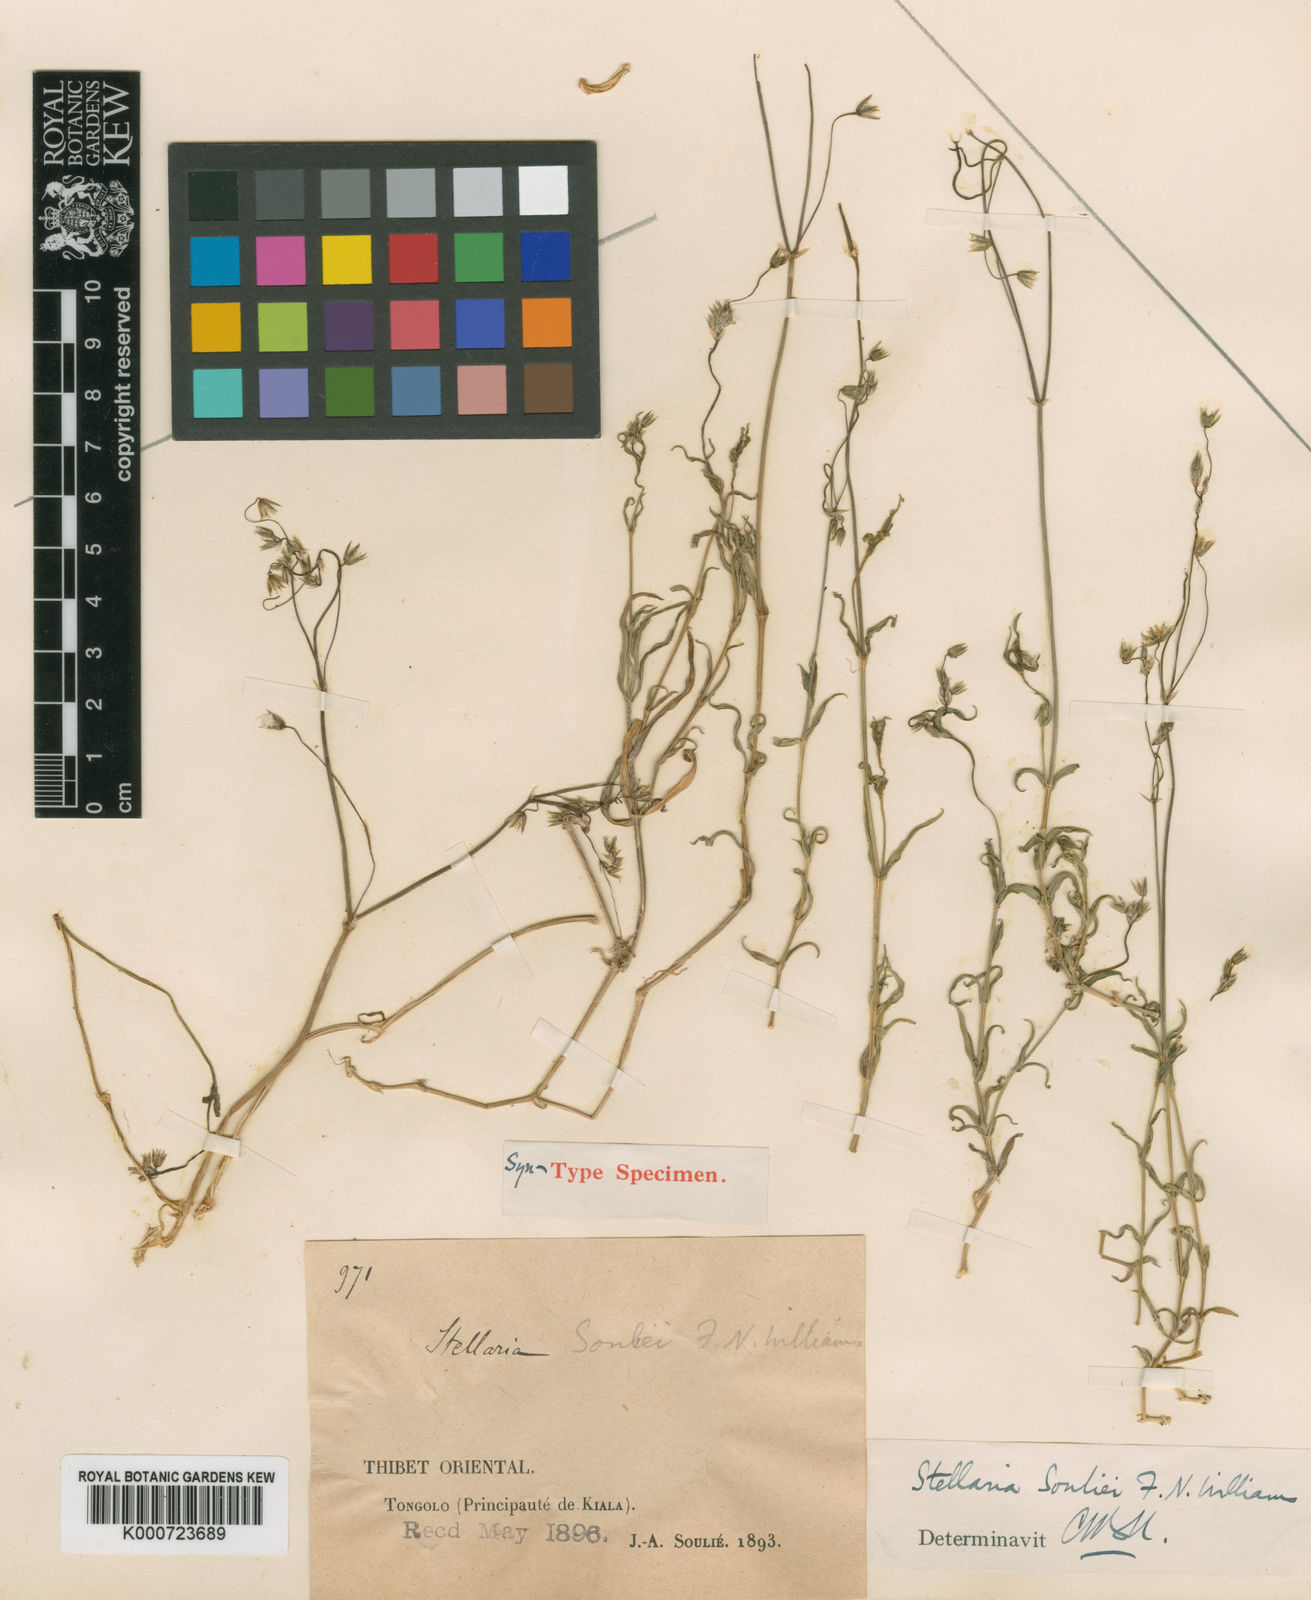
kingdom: Plantae
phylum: Tracheophyta
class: Magnoliopsida
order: Caryophyllales
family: Caryophyllaceae
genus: Stellaria
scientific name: Stellaria souliei
